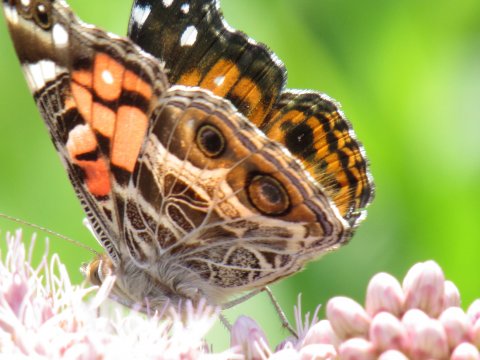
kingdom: Animalia
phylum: Arthropoda
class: Insecta
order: Lepidoptera
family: Nymphalidae
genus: Vanessa
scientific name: Vanessa virginiensis
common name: American Lady
